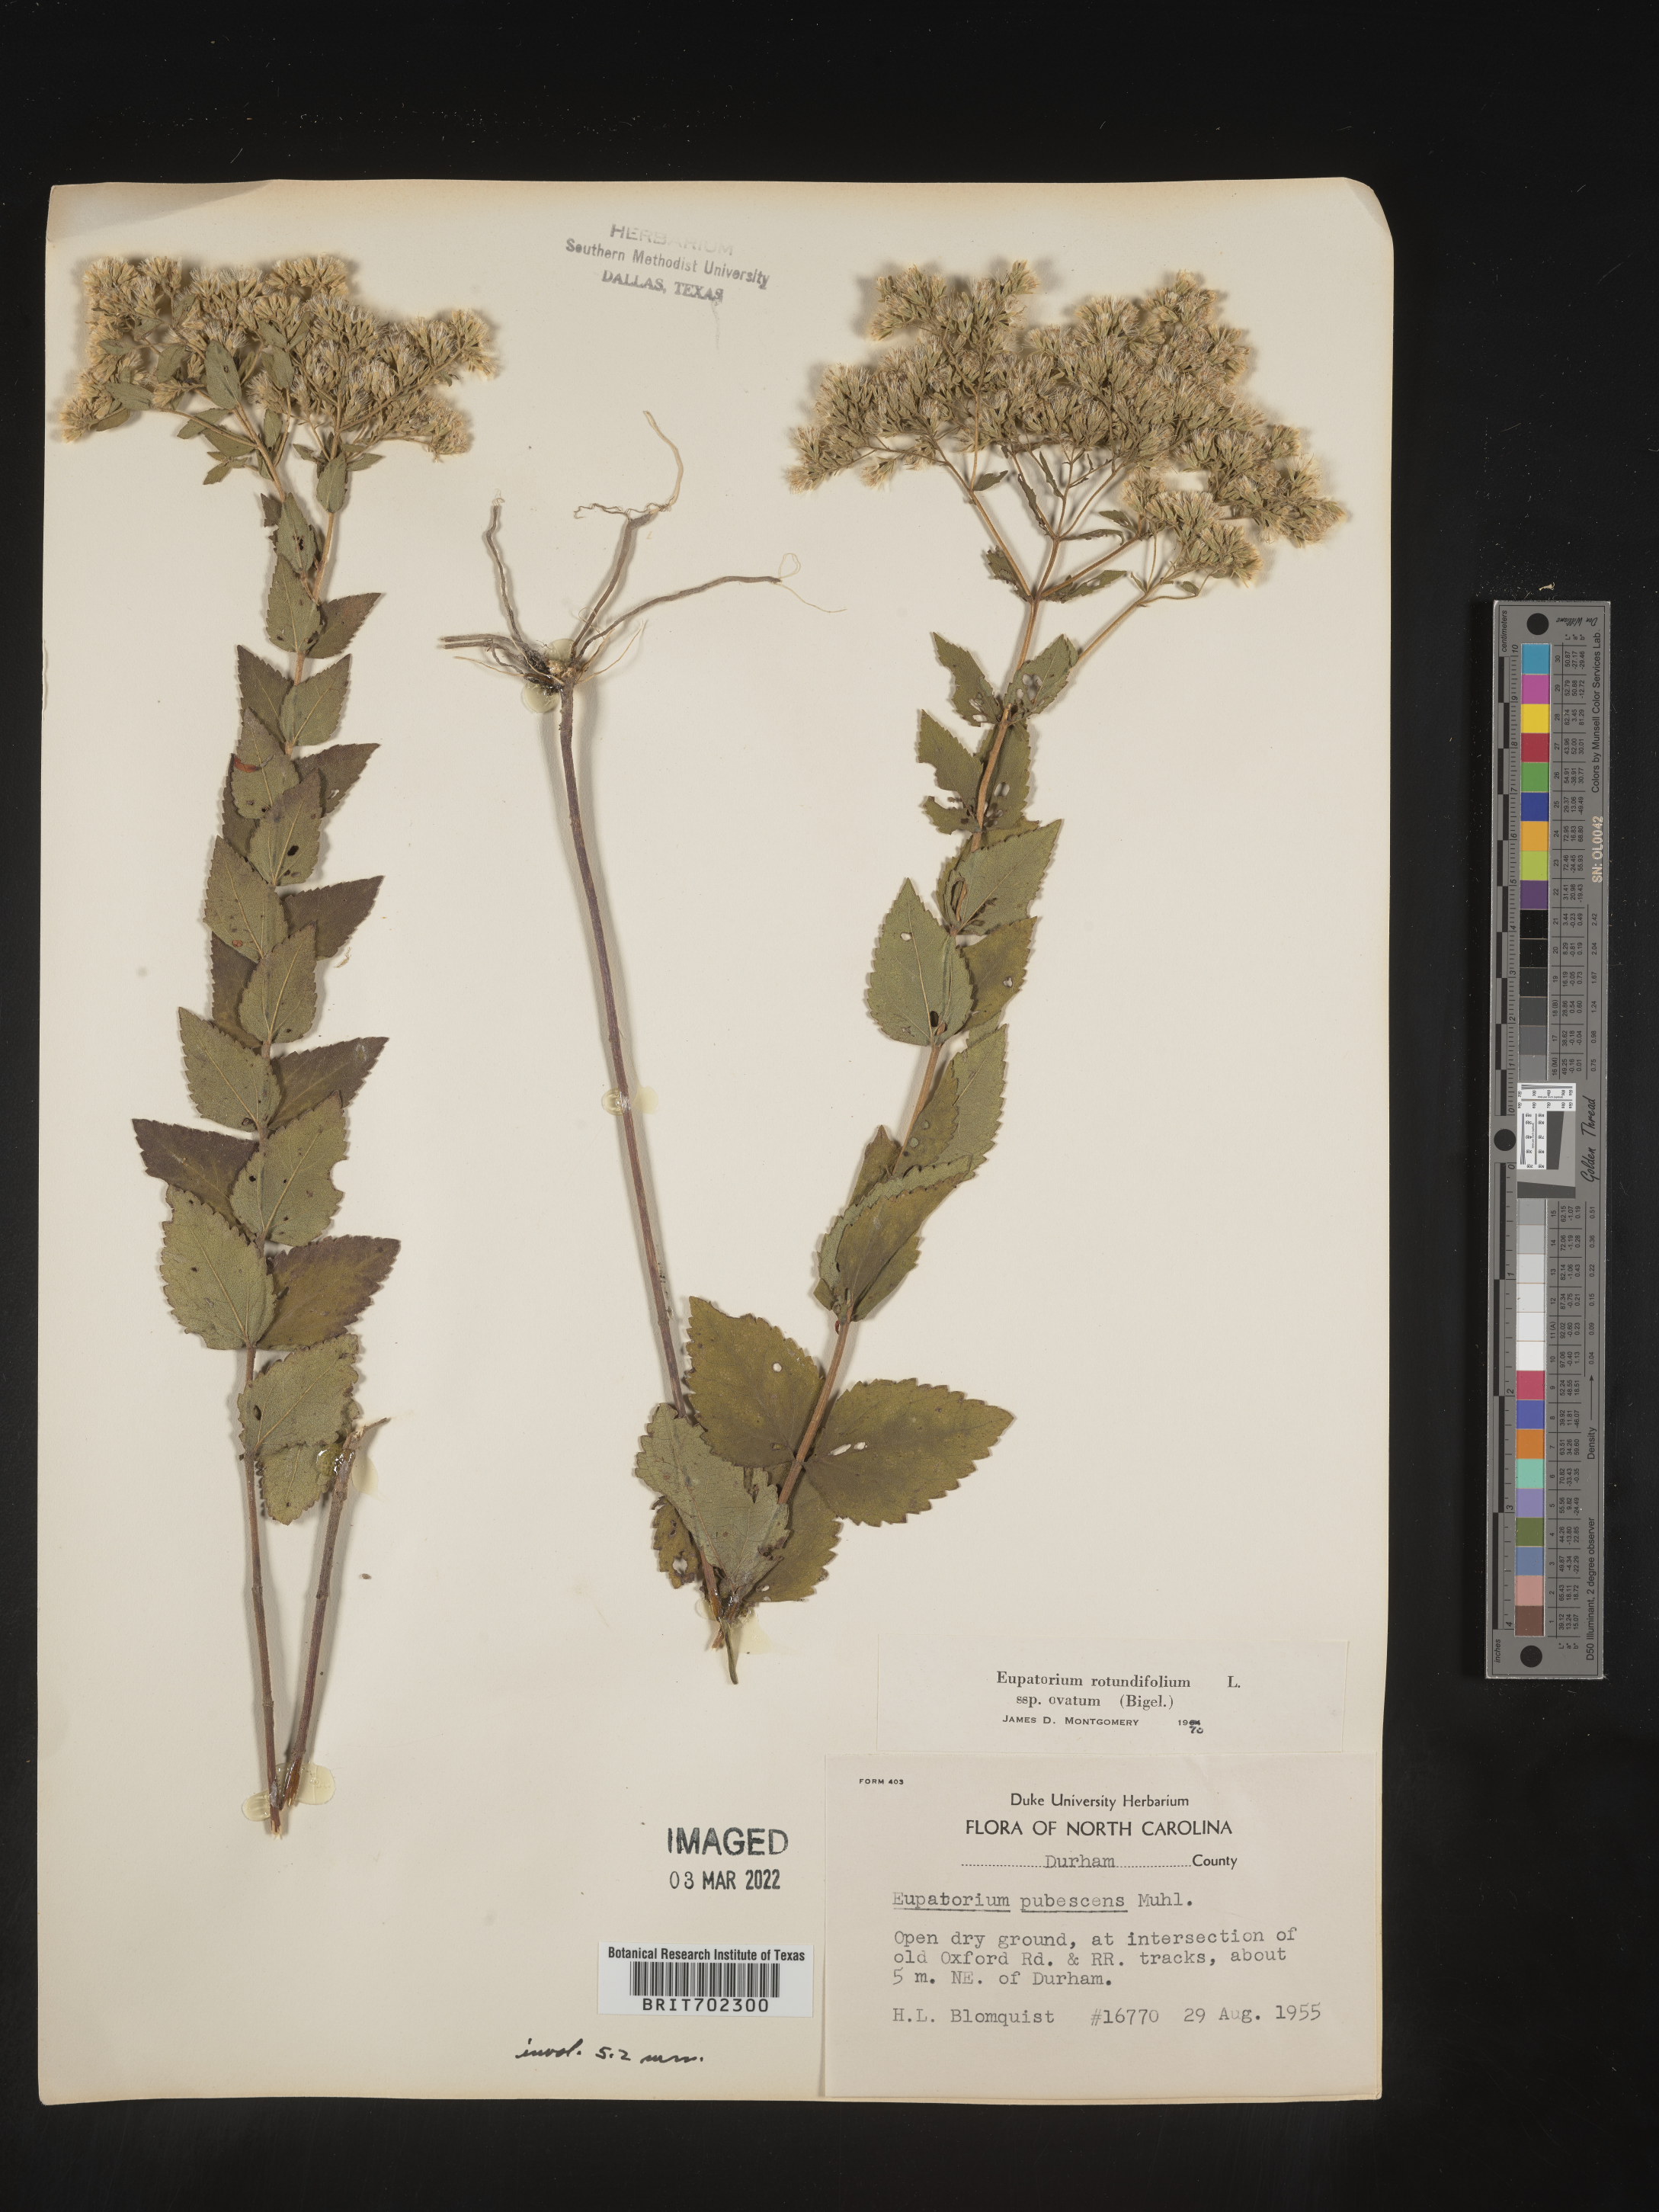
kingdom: Plantae
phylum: Tracheophyta
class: Magnoliopsida
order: Asterales
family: Asteraceae
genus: Eupatorium
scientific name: Eupatorium rotundifolium
